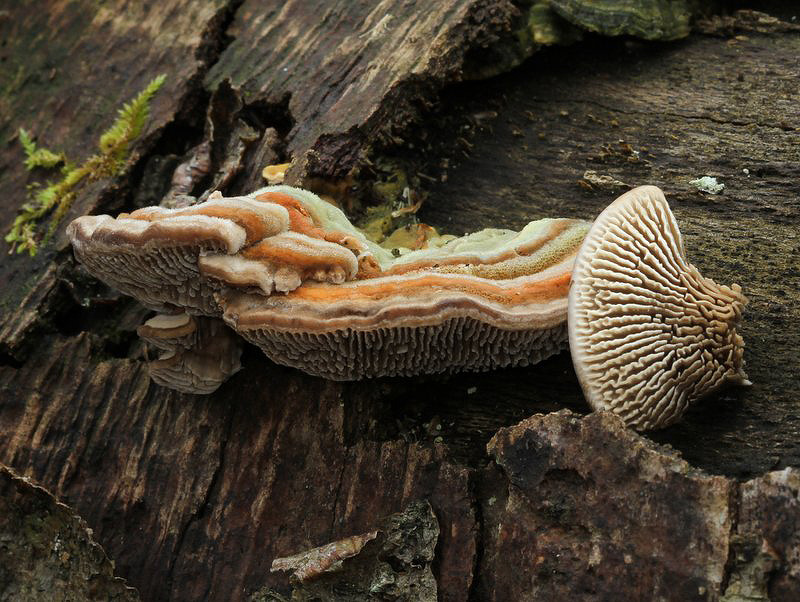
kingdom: Fungi
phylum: Basidiomycota
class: Agaricomycetes
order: Polyporales
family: Polyporaceae
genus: Lenzites
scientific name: Lenzites betulinus
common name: birke-læderporesvamp
